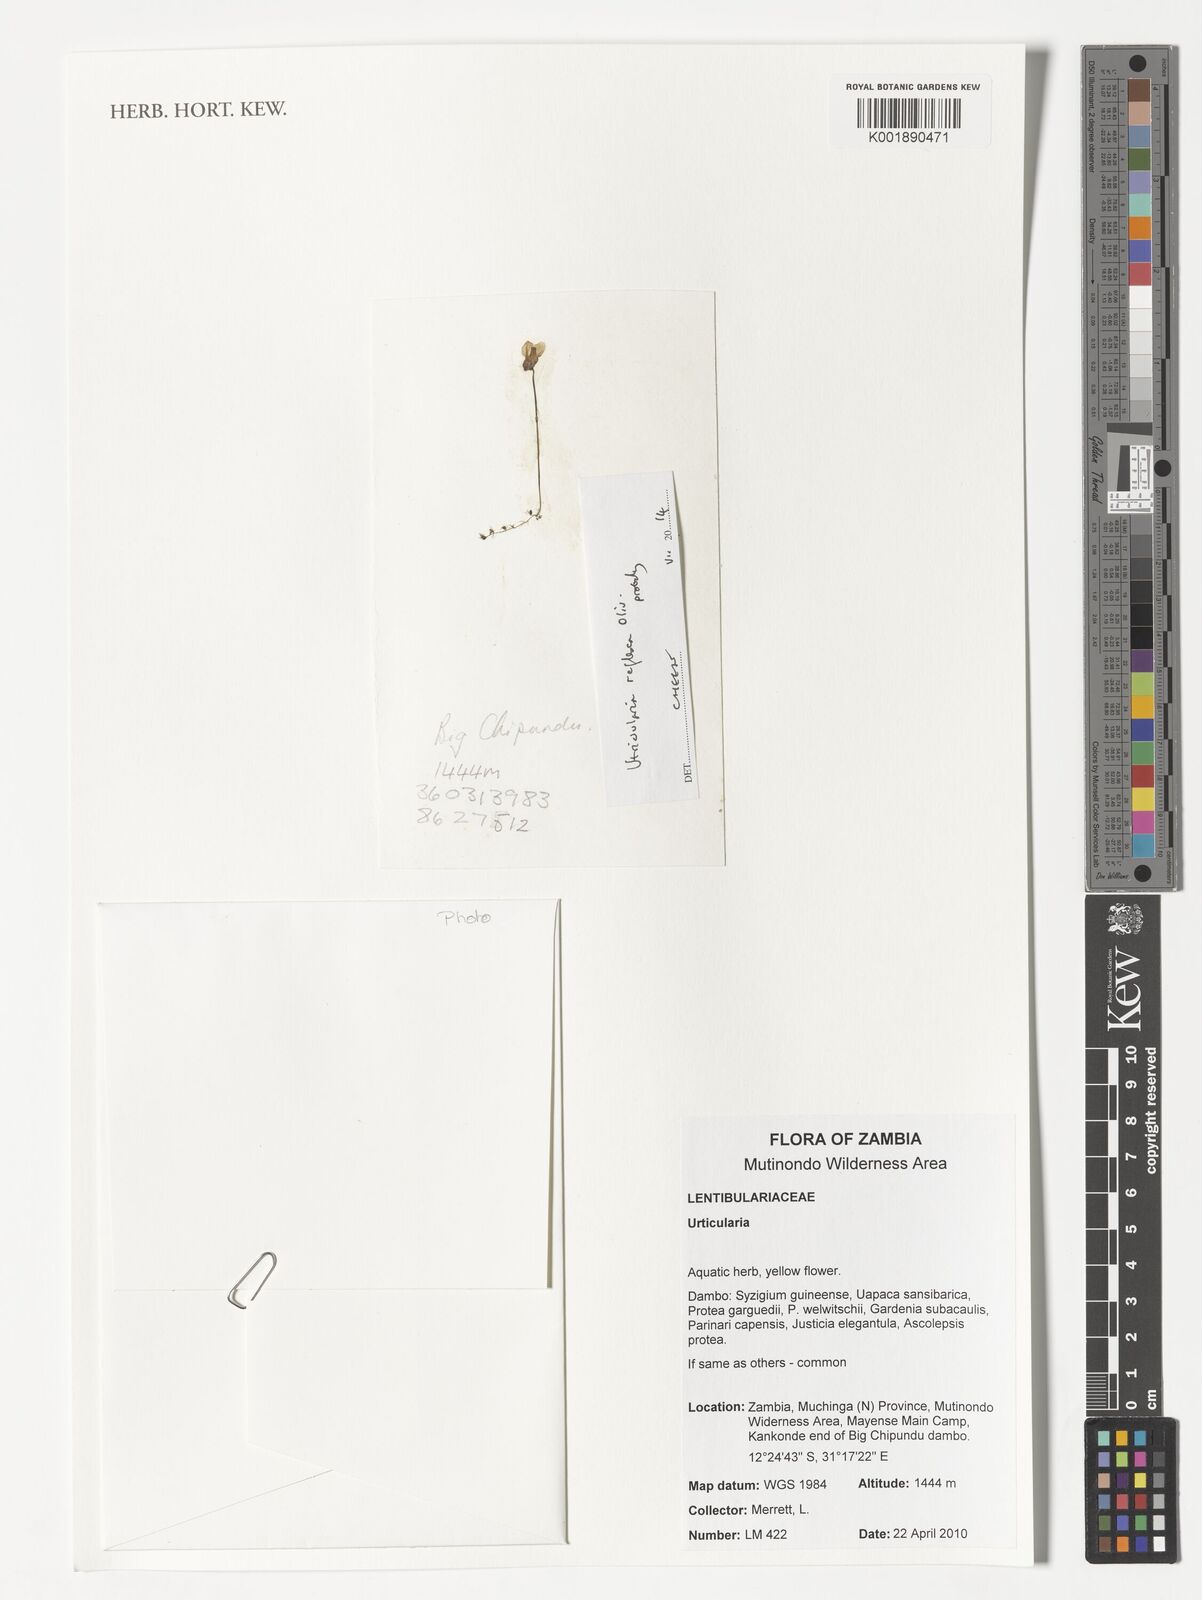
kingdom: Plantae
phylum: Tracheophyta
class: Magnoliopsida
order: Lamiales
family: Lentibulariaceae
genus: Utricularia
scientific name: Utricularia reflexa
